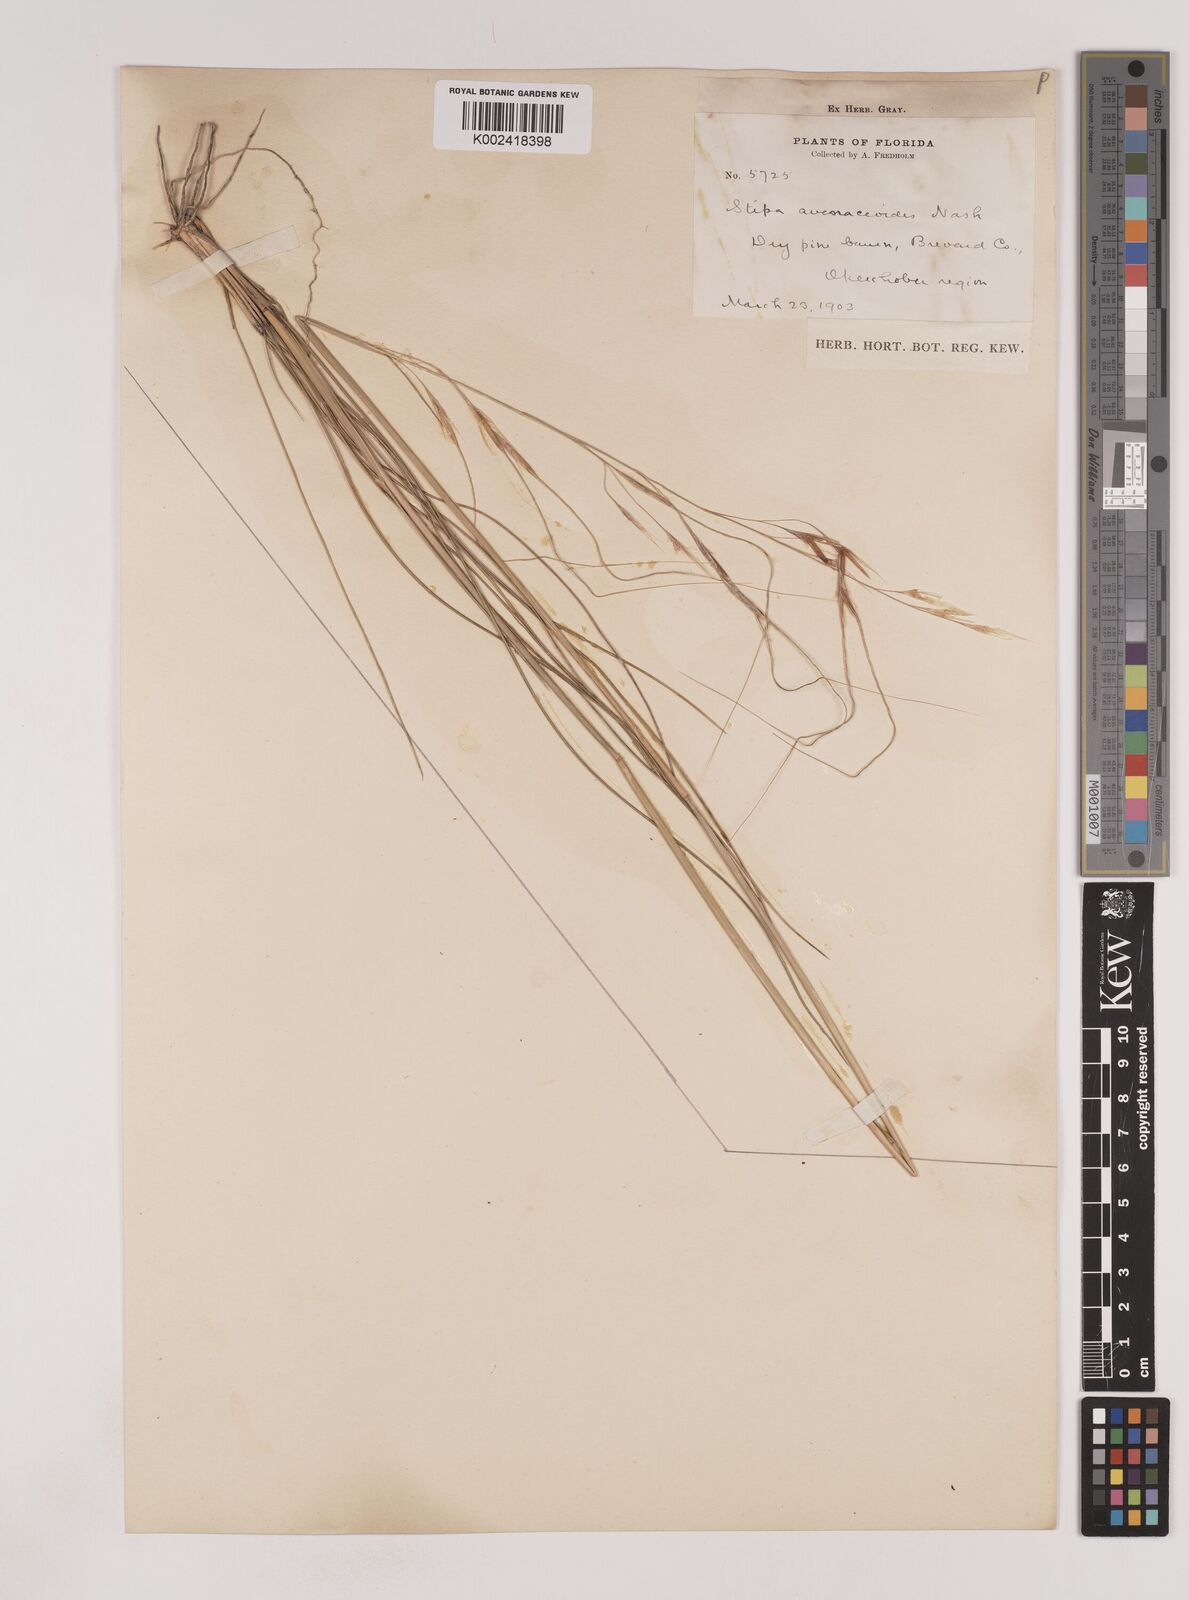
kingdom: Plantae
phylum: Tracheophyta
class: Liliopsida
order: Poales
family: Poaceae
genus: Piptochaetium
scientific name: Piptochaetium avenacioides
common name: Florida needlegrass
